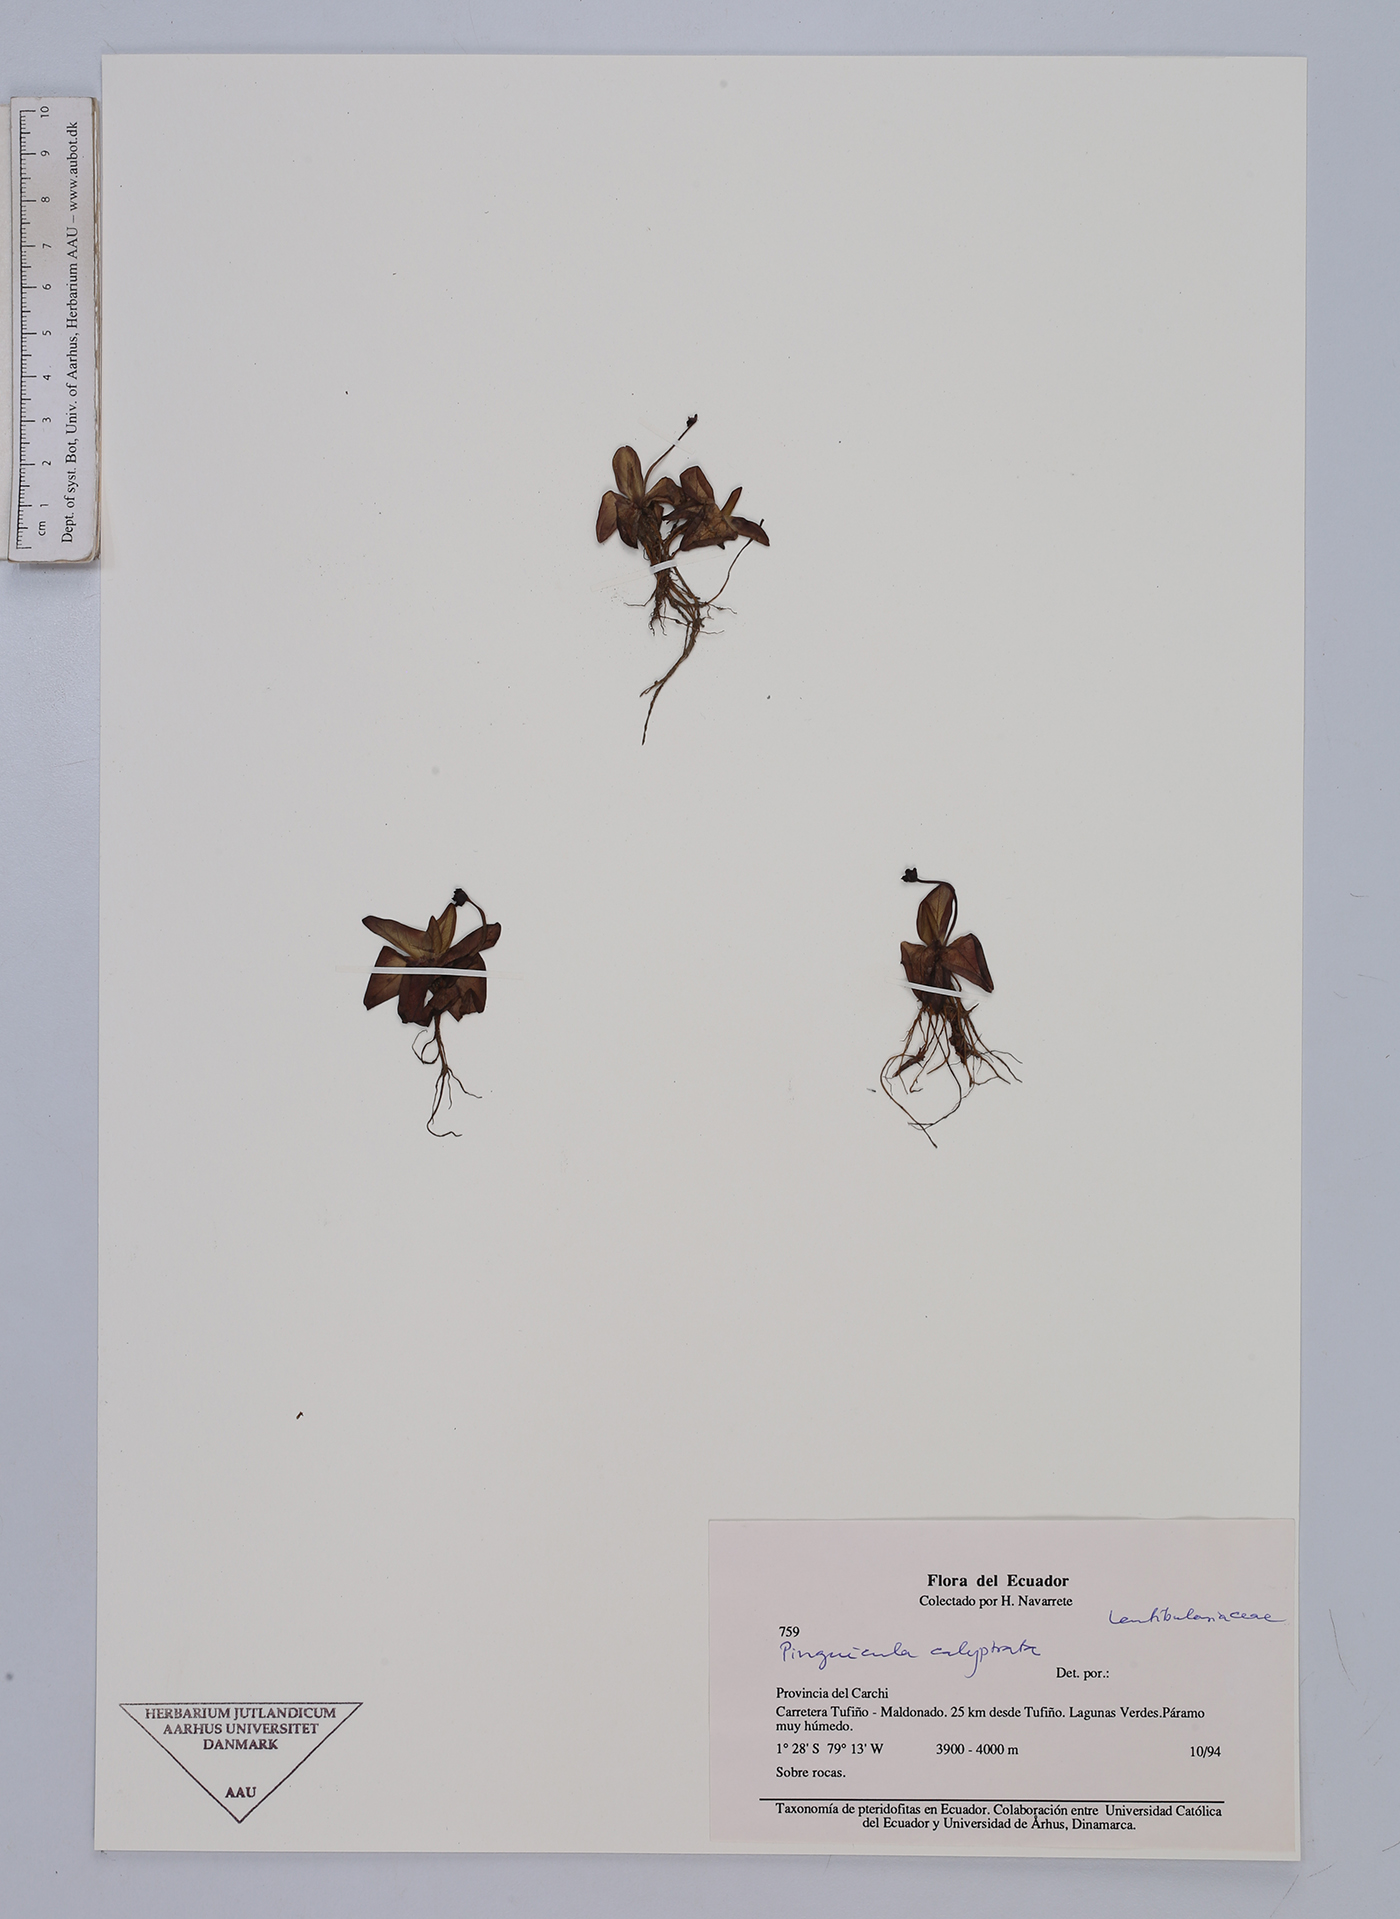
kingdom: Plantae
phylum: Tracheophyta
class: Magnoliopsida
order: Lamiales
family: Lentibulariaceae
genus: Pinguicula
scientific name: Pinguicula calyptrata
